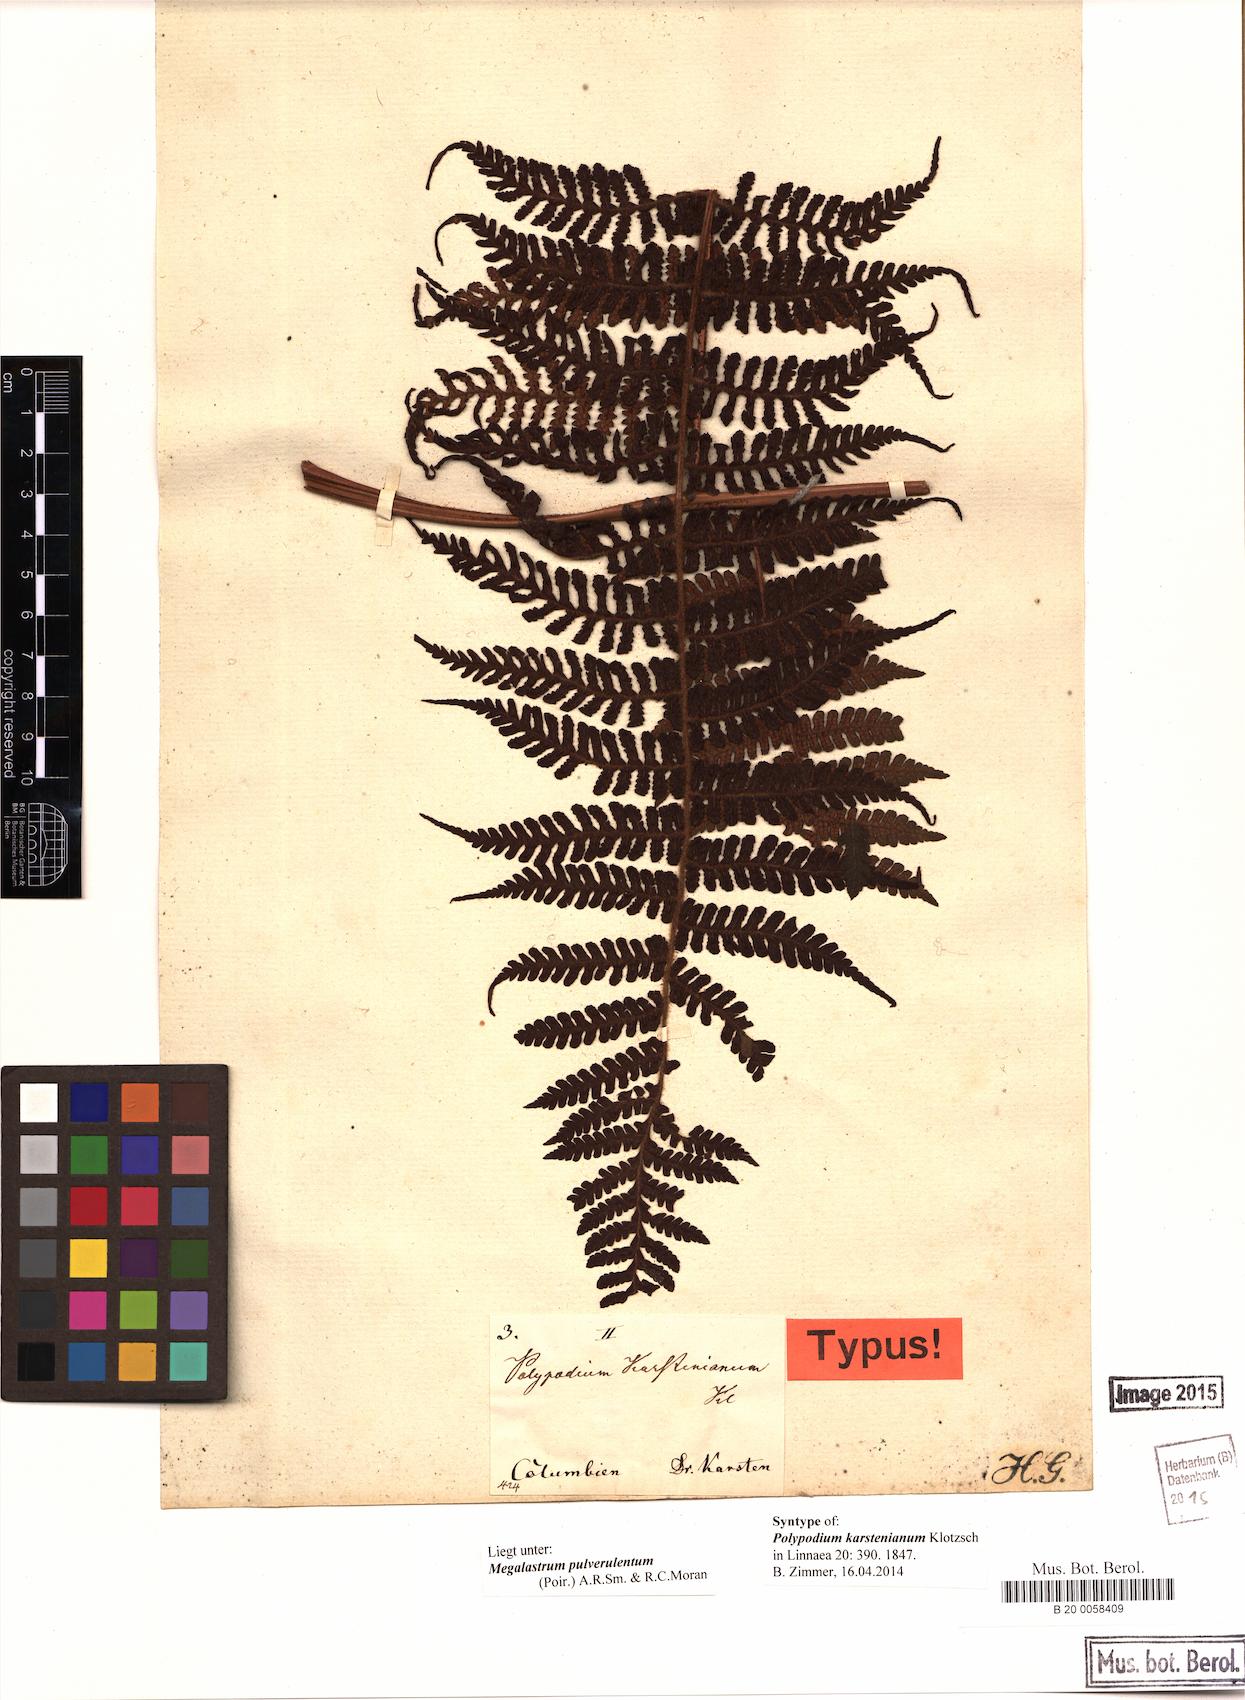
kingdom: Plantae
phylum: Tracheophyta
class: Polypodiopsida
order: Polypodiales
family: Dryopteridaceae
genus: Megalastrum
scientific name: Megalastrum pulverulentum
